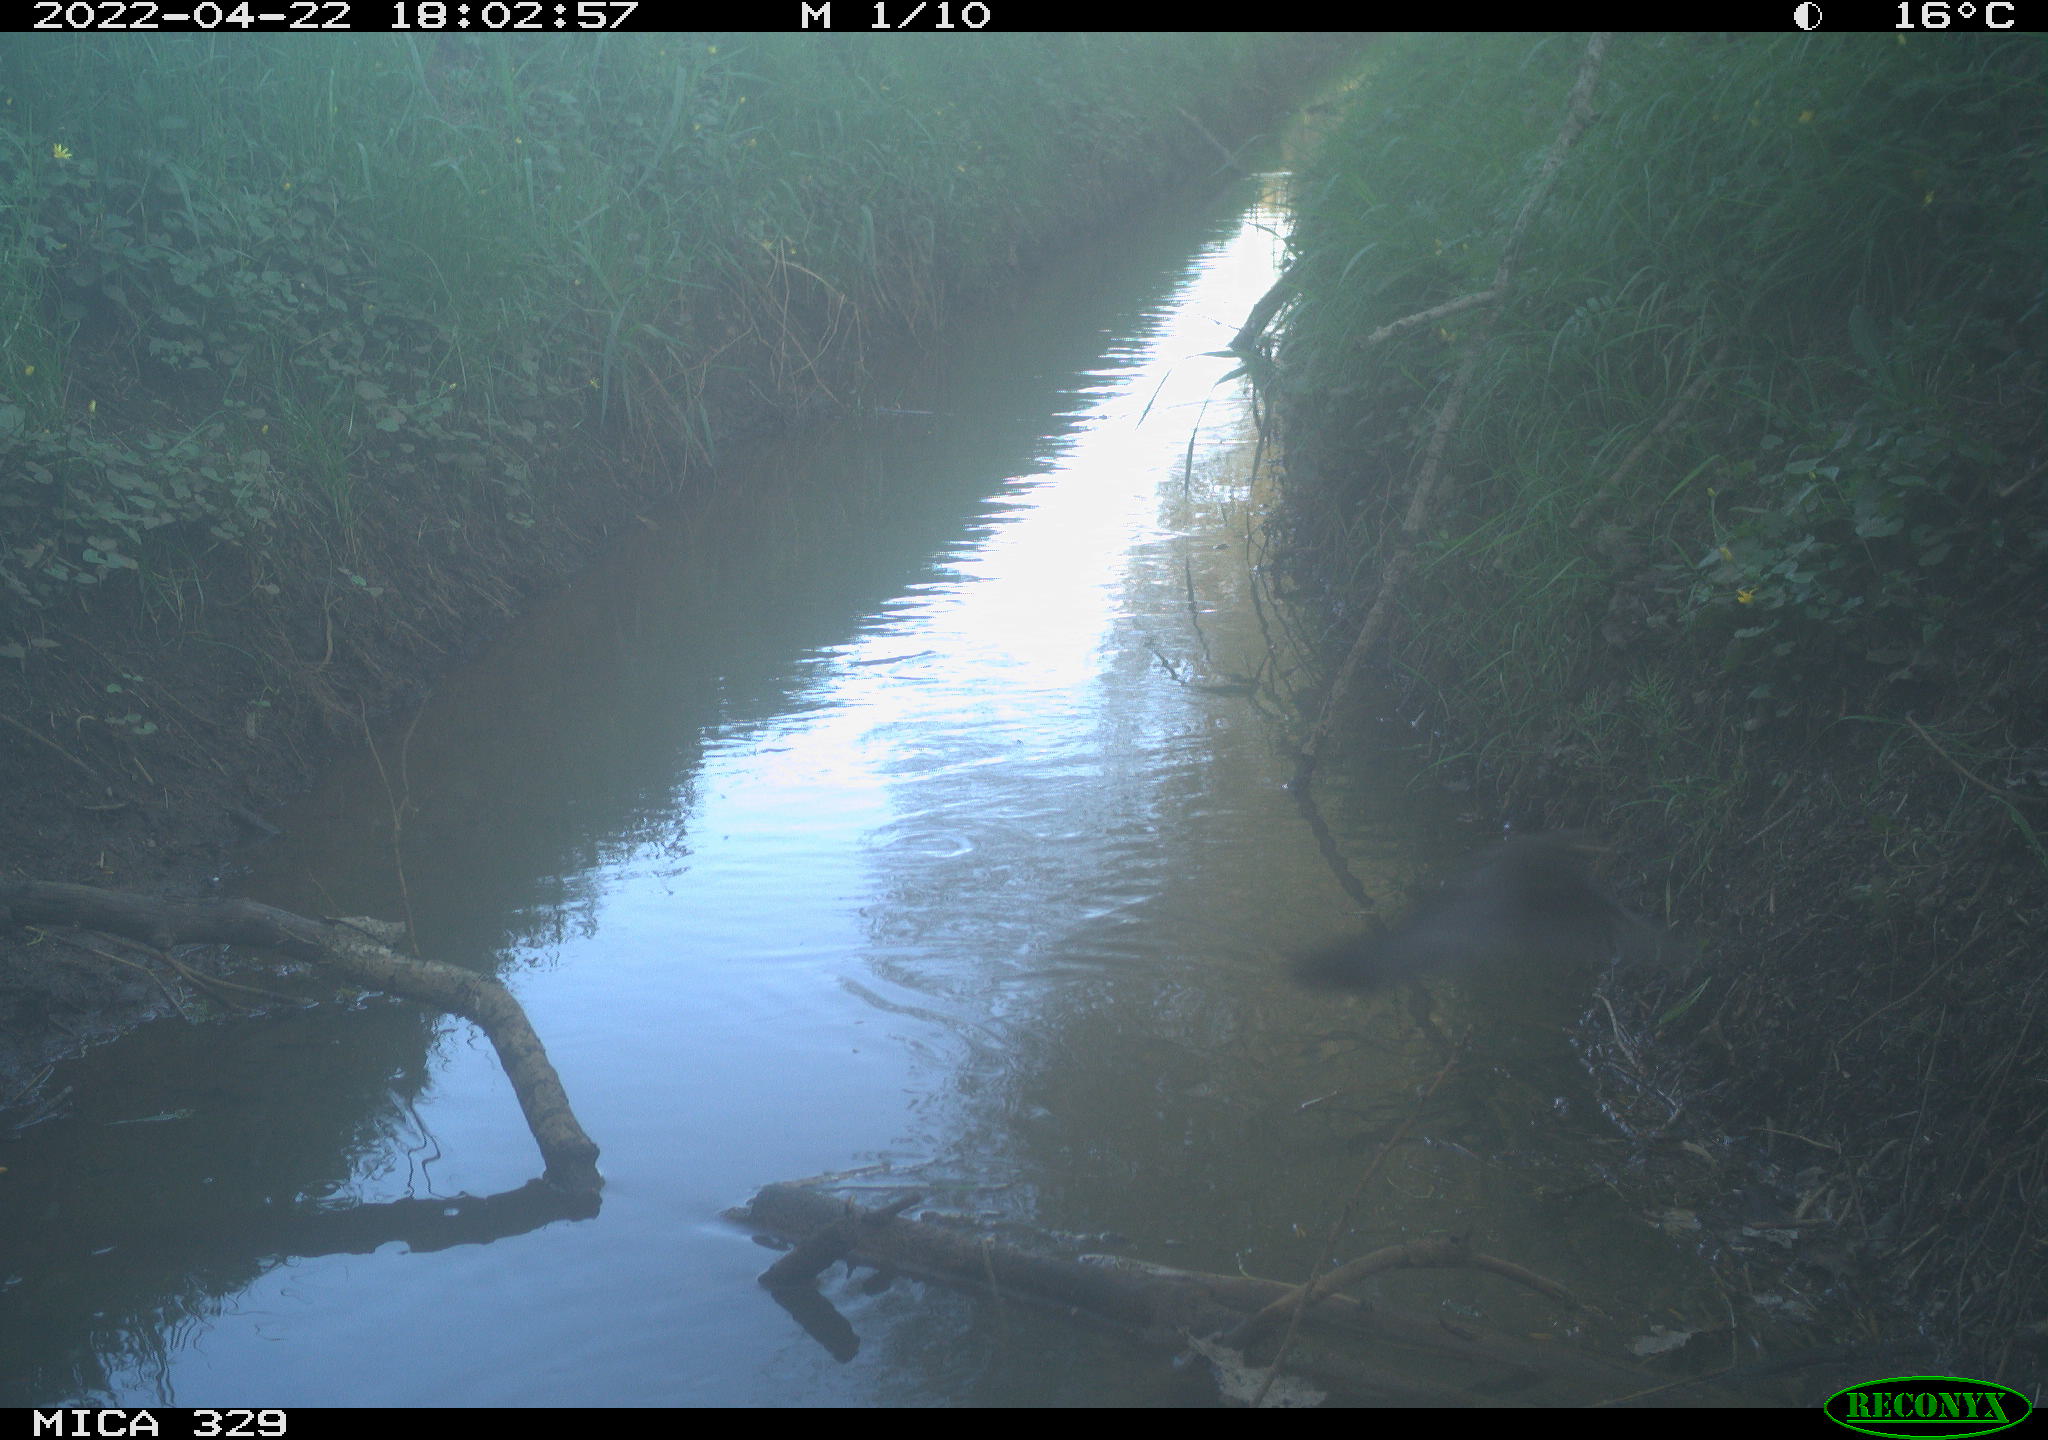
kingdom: Animalia
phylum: Chordata
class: Aves
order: Passeriformes
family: Turdidae
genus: Turdus
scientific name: Turdus merula
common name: Common blackbird
